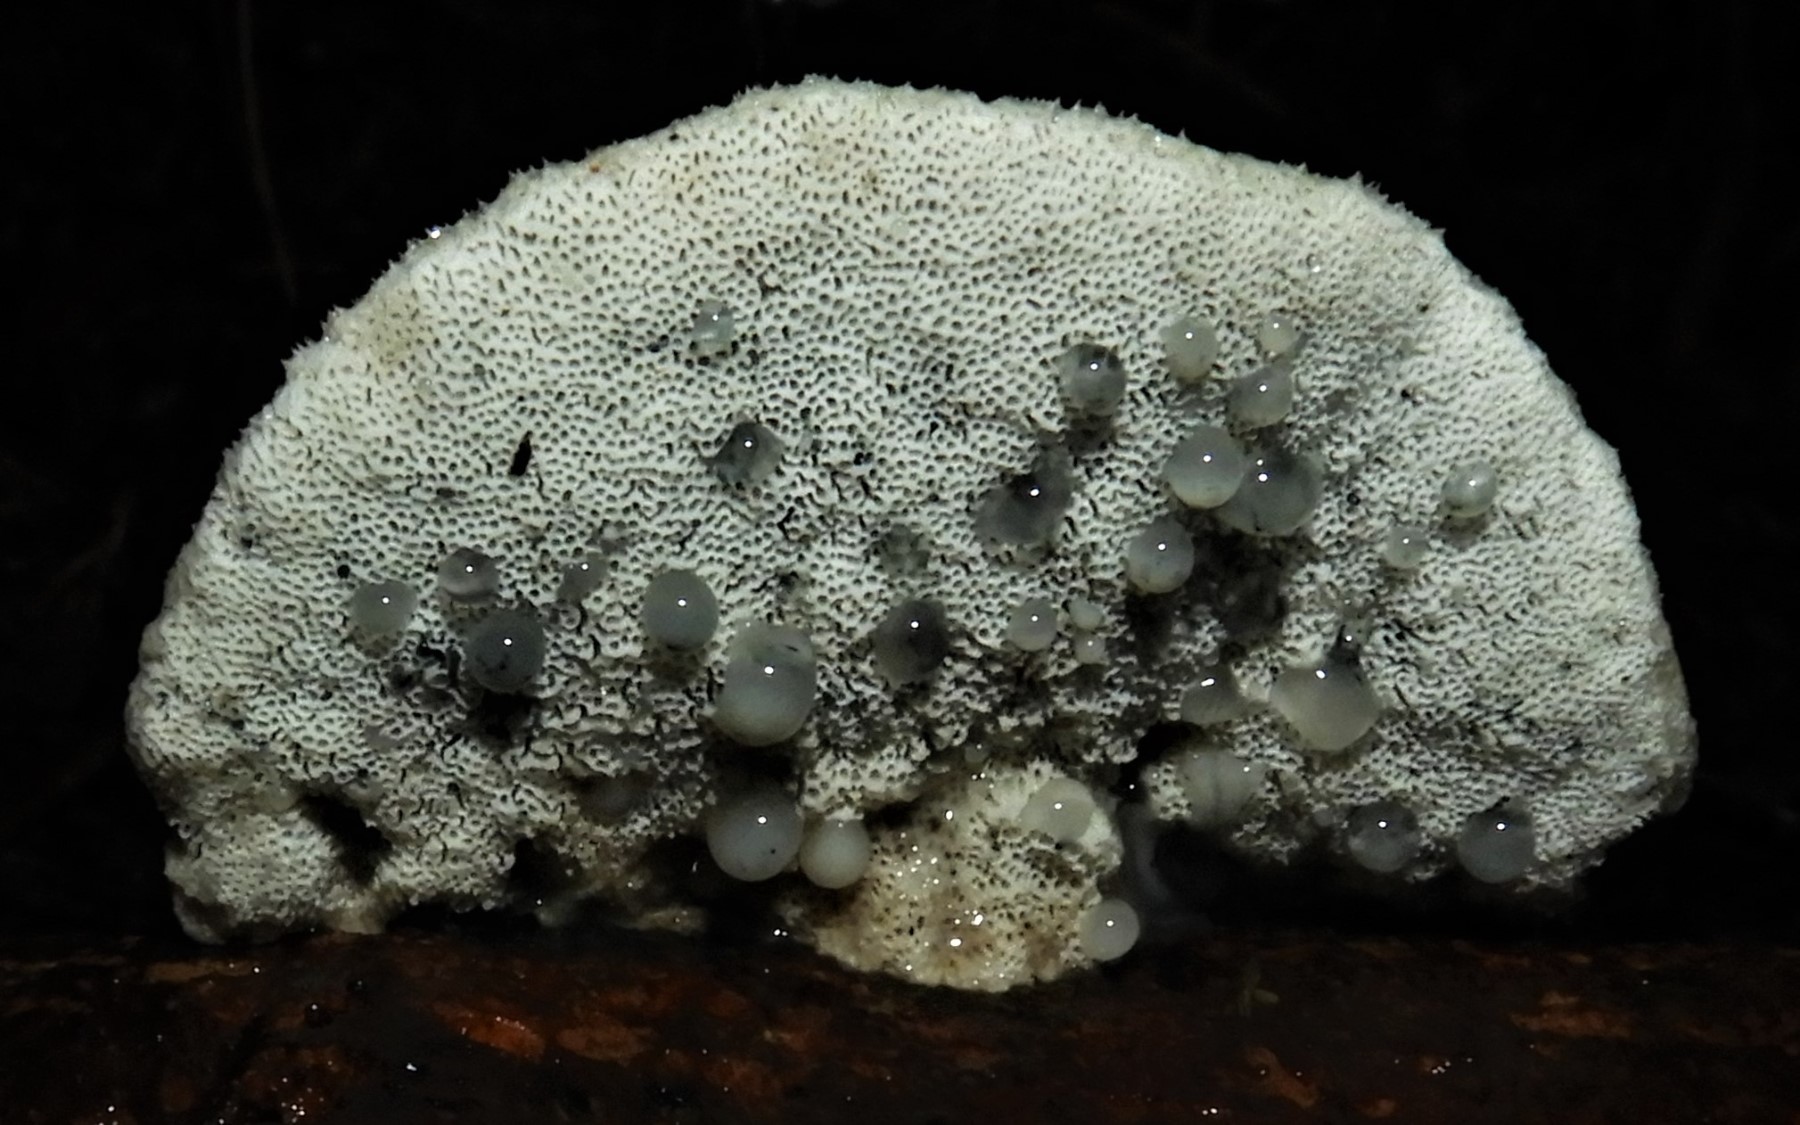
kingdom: Fungi
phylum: Basidiomycota
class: Agaricomycetes
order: Polyporales
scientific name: Polyporales
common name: poresvampordenen
